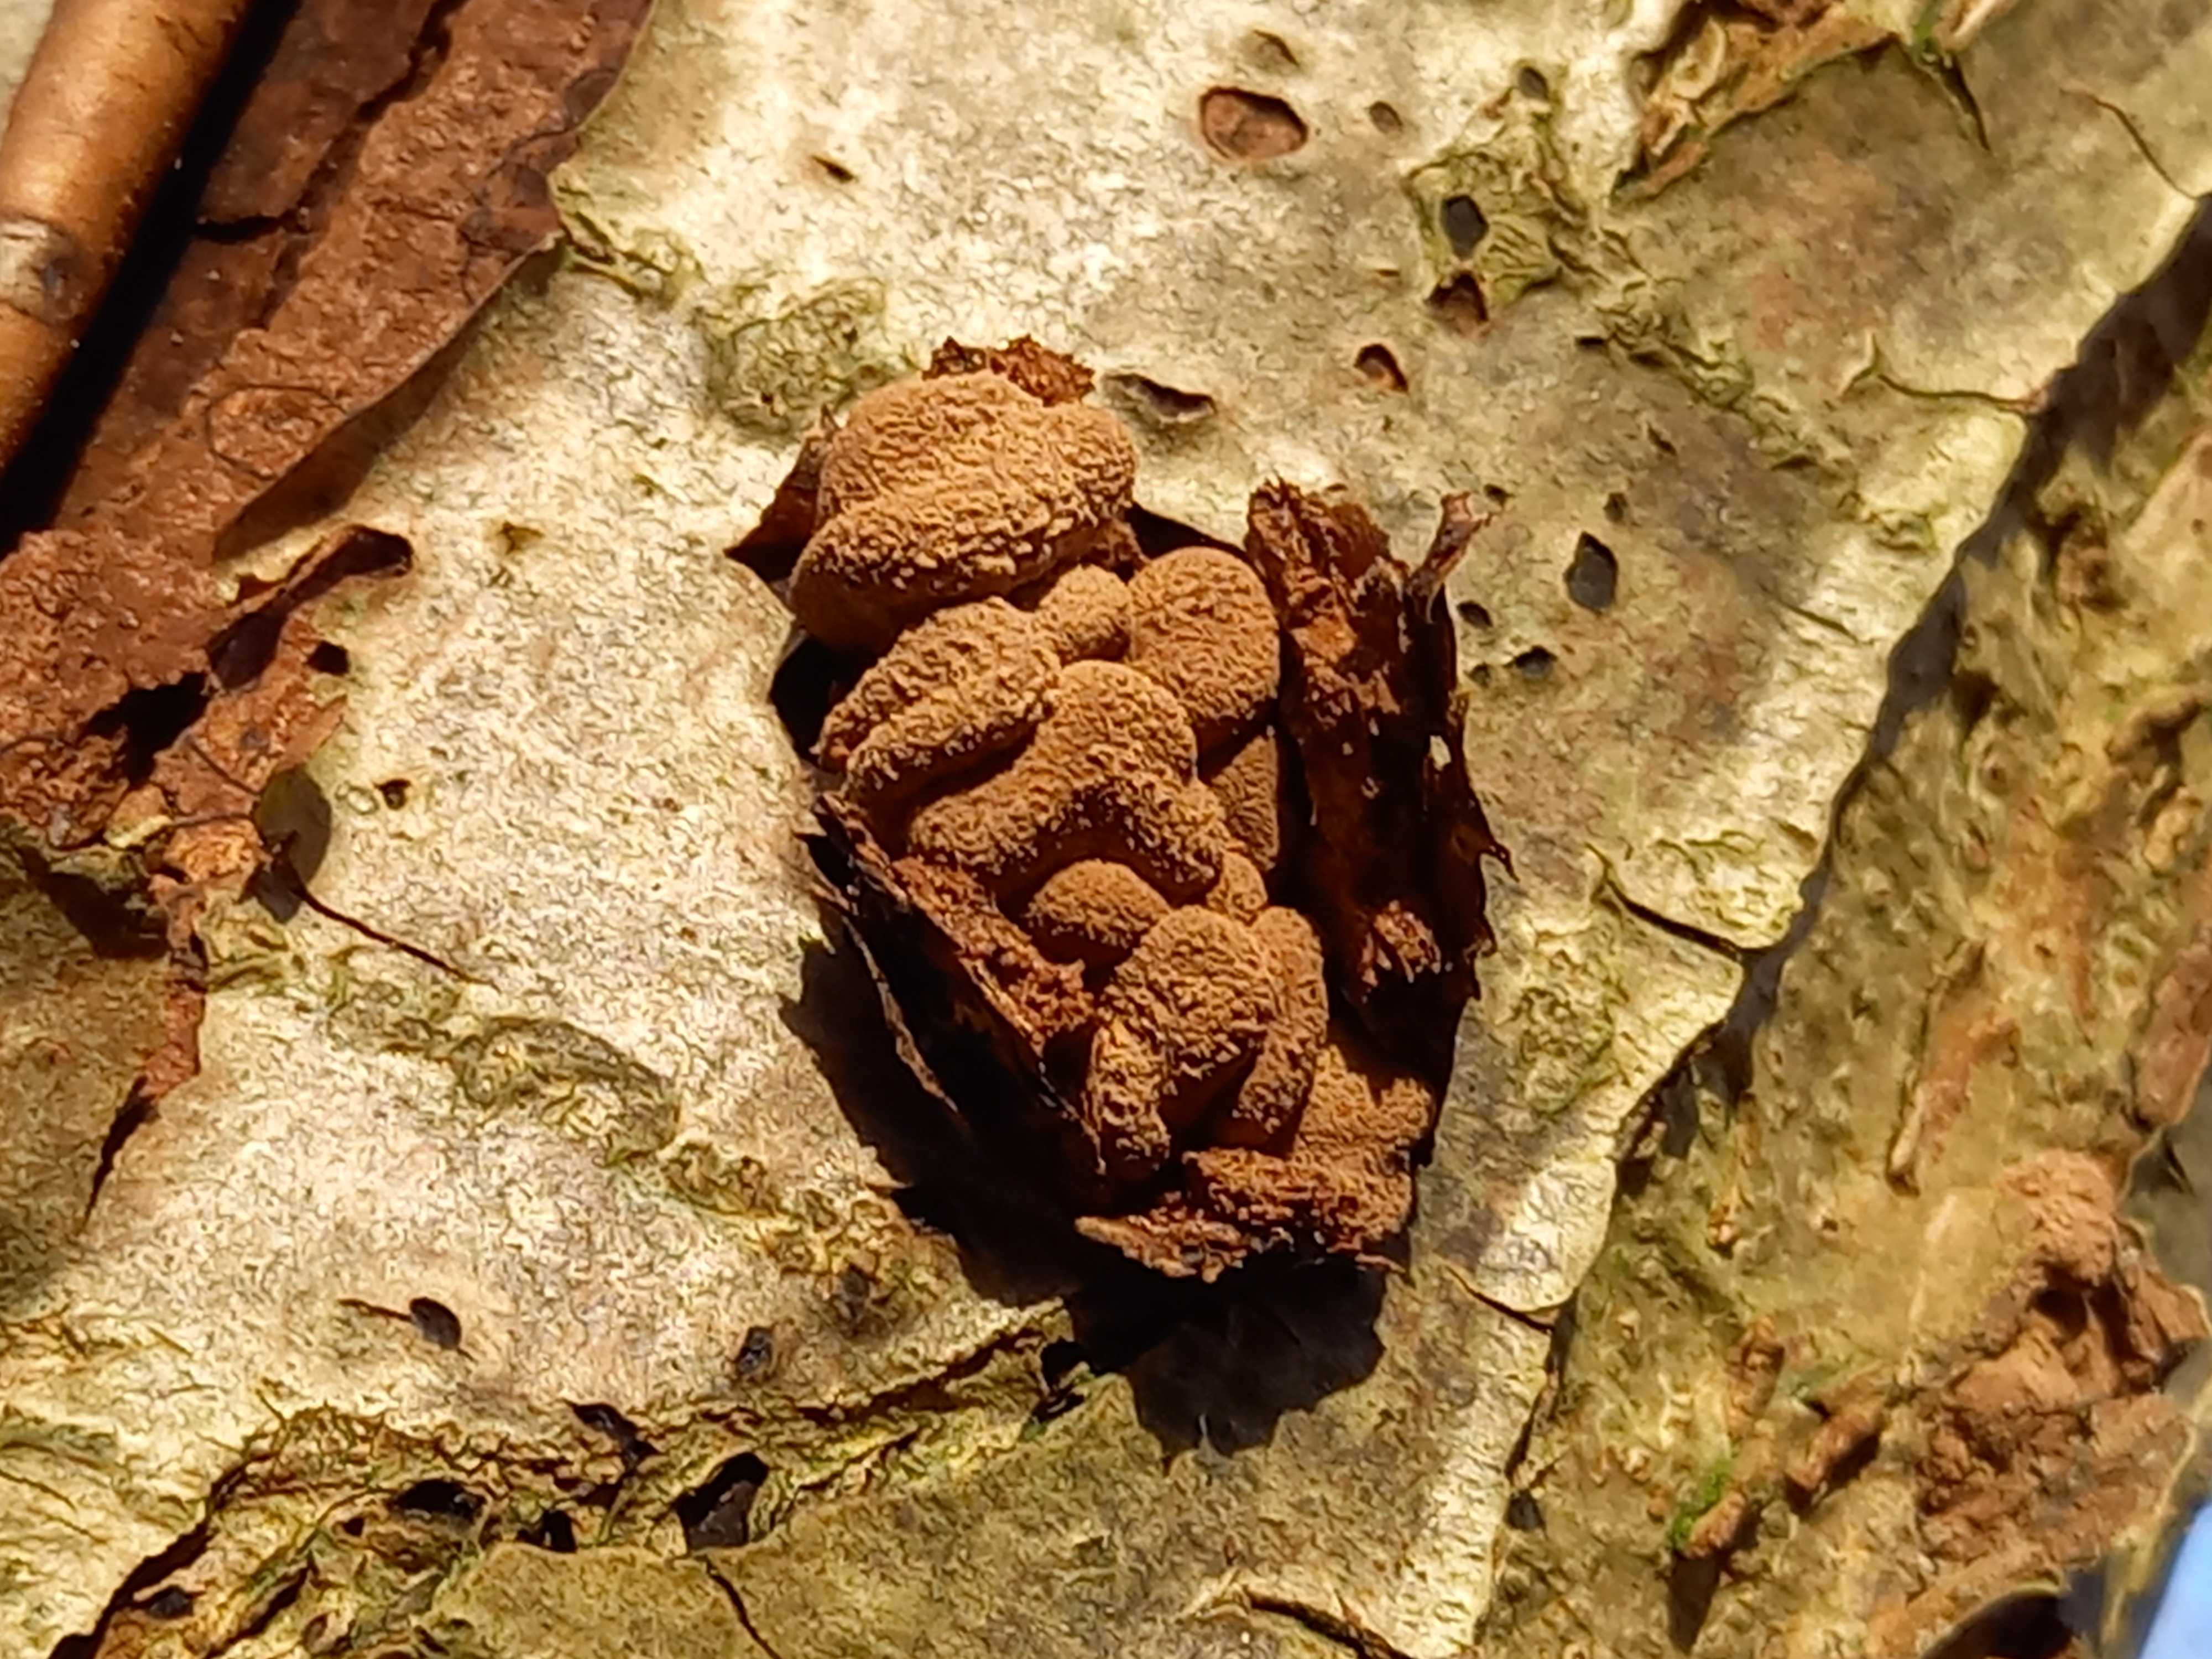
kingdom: Fungi
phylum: Ascomycota
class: Leotiomycetes
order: Helotiales
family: Cenangiaceae
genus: Encoelia
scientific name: Encoelia furfuracea
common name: hassel-læderskive
